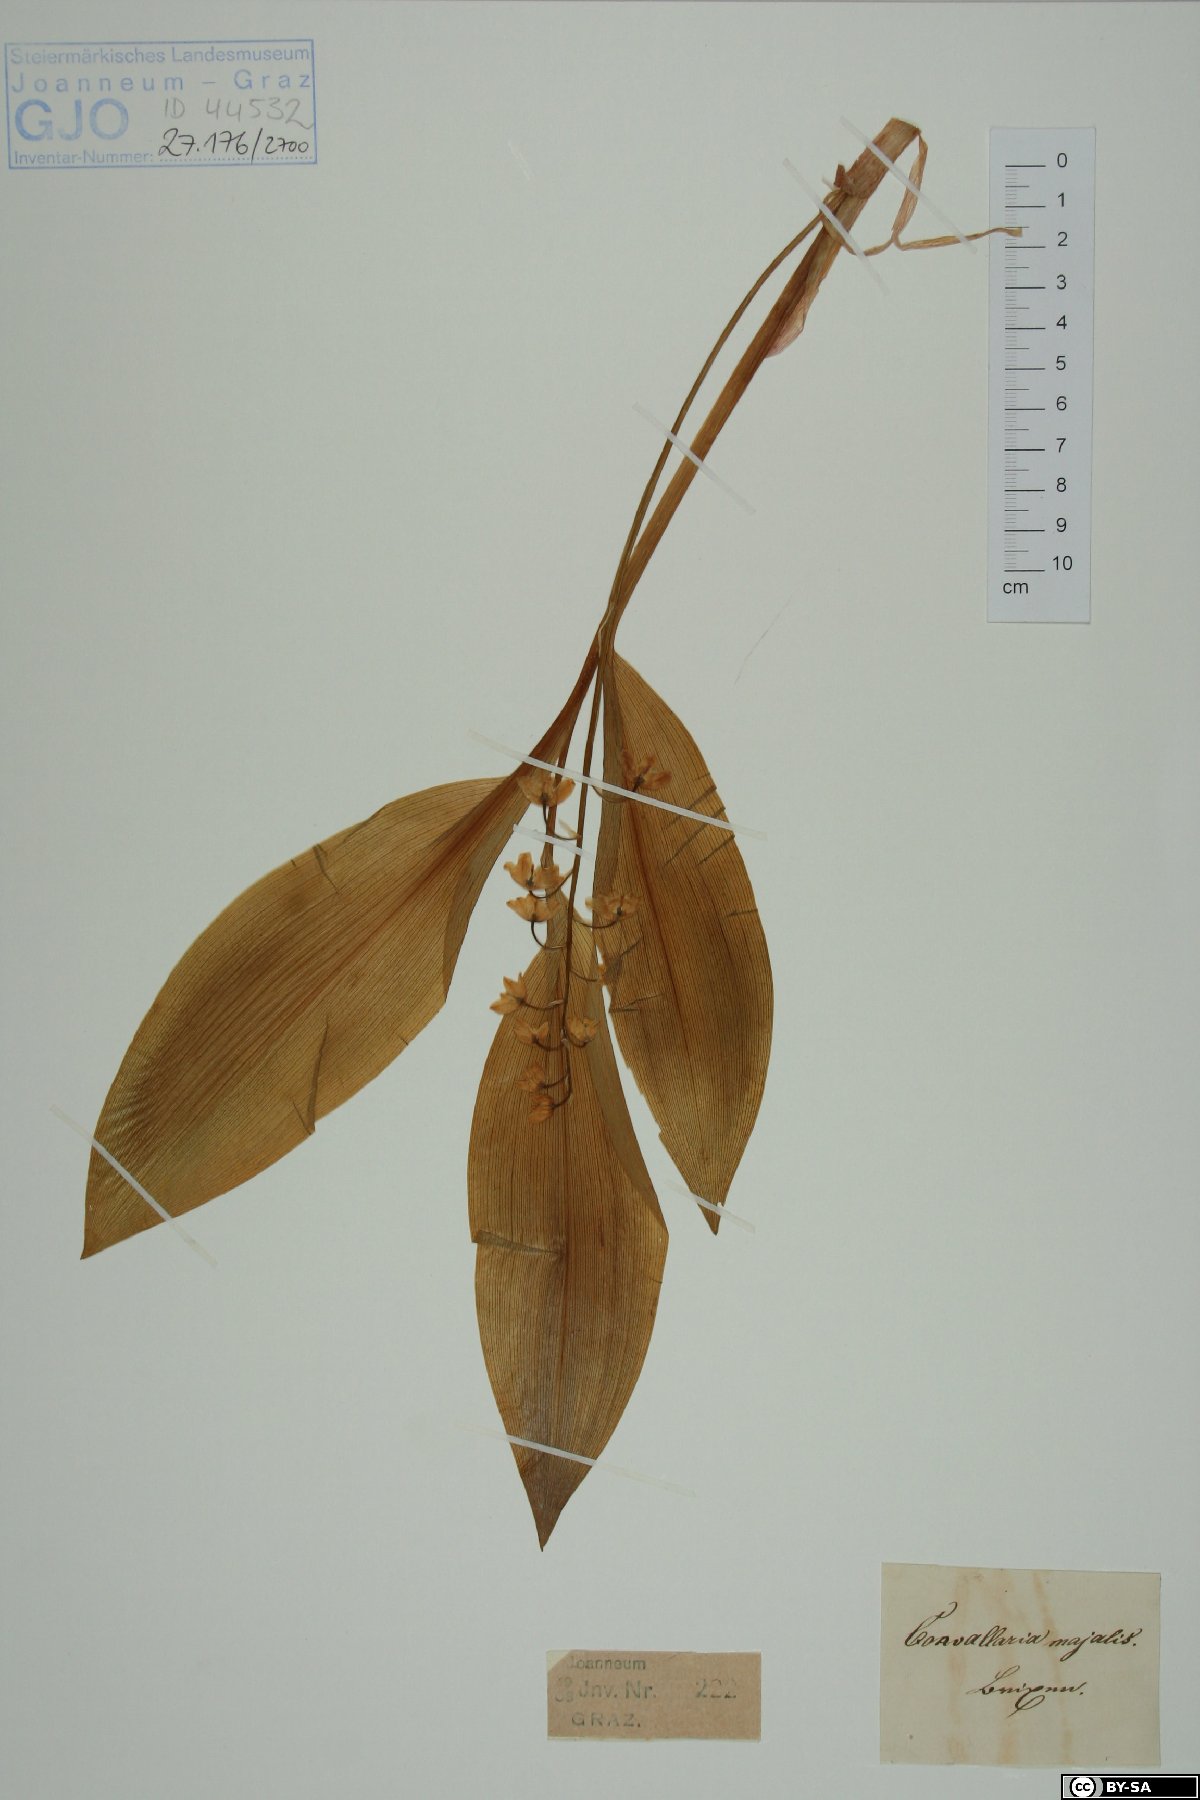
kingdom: Plantae
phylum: Tracheophyta
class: Liliopsida
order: Asparagales
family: Asparagaceae
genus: Convallaria
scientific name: Convallaria majalis
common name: Lily-of-the-valley
